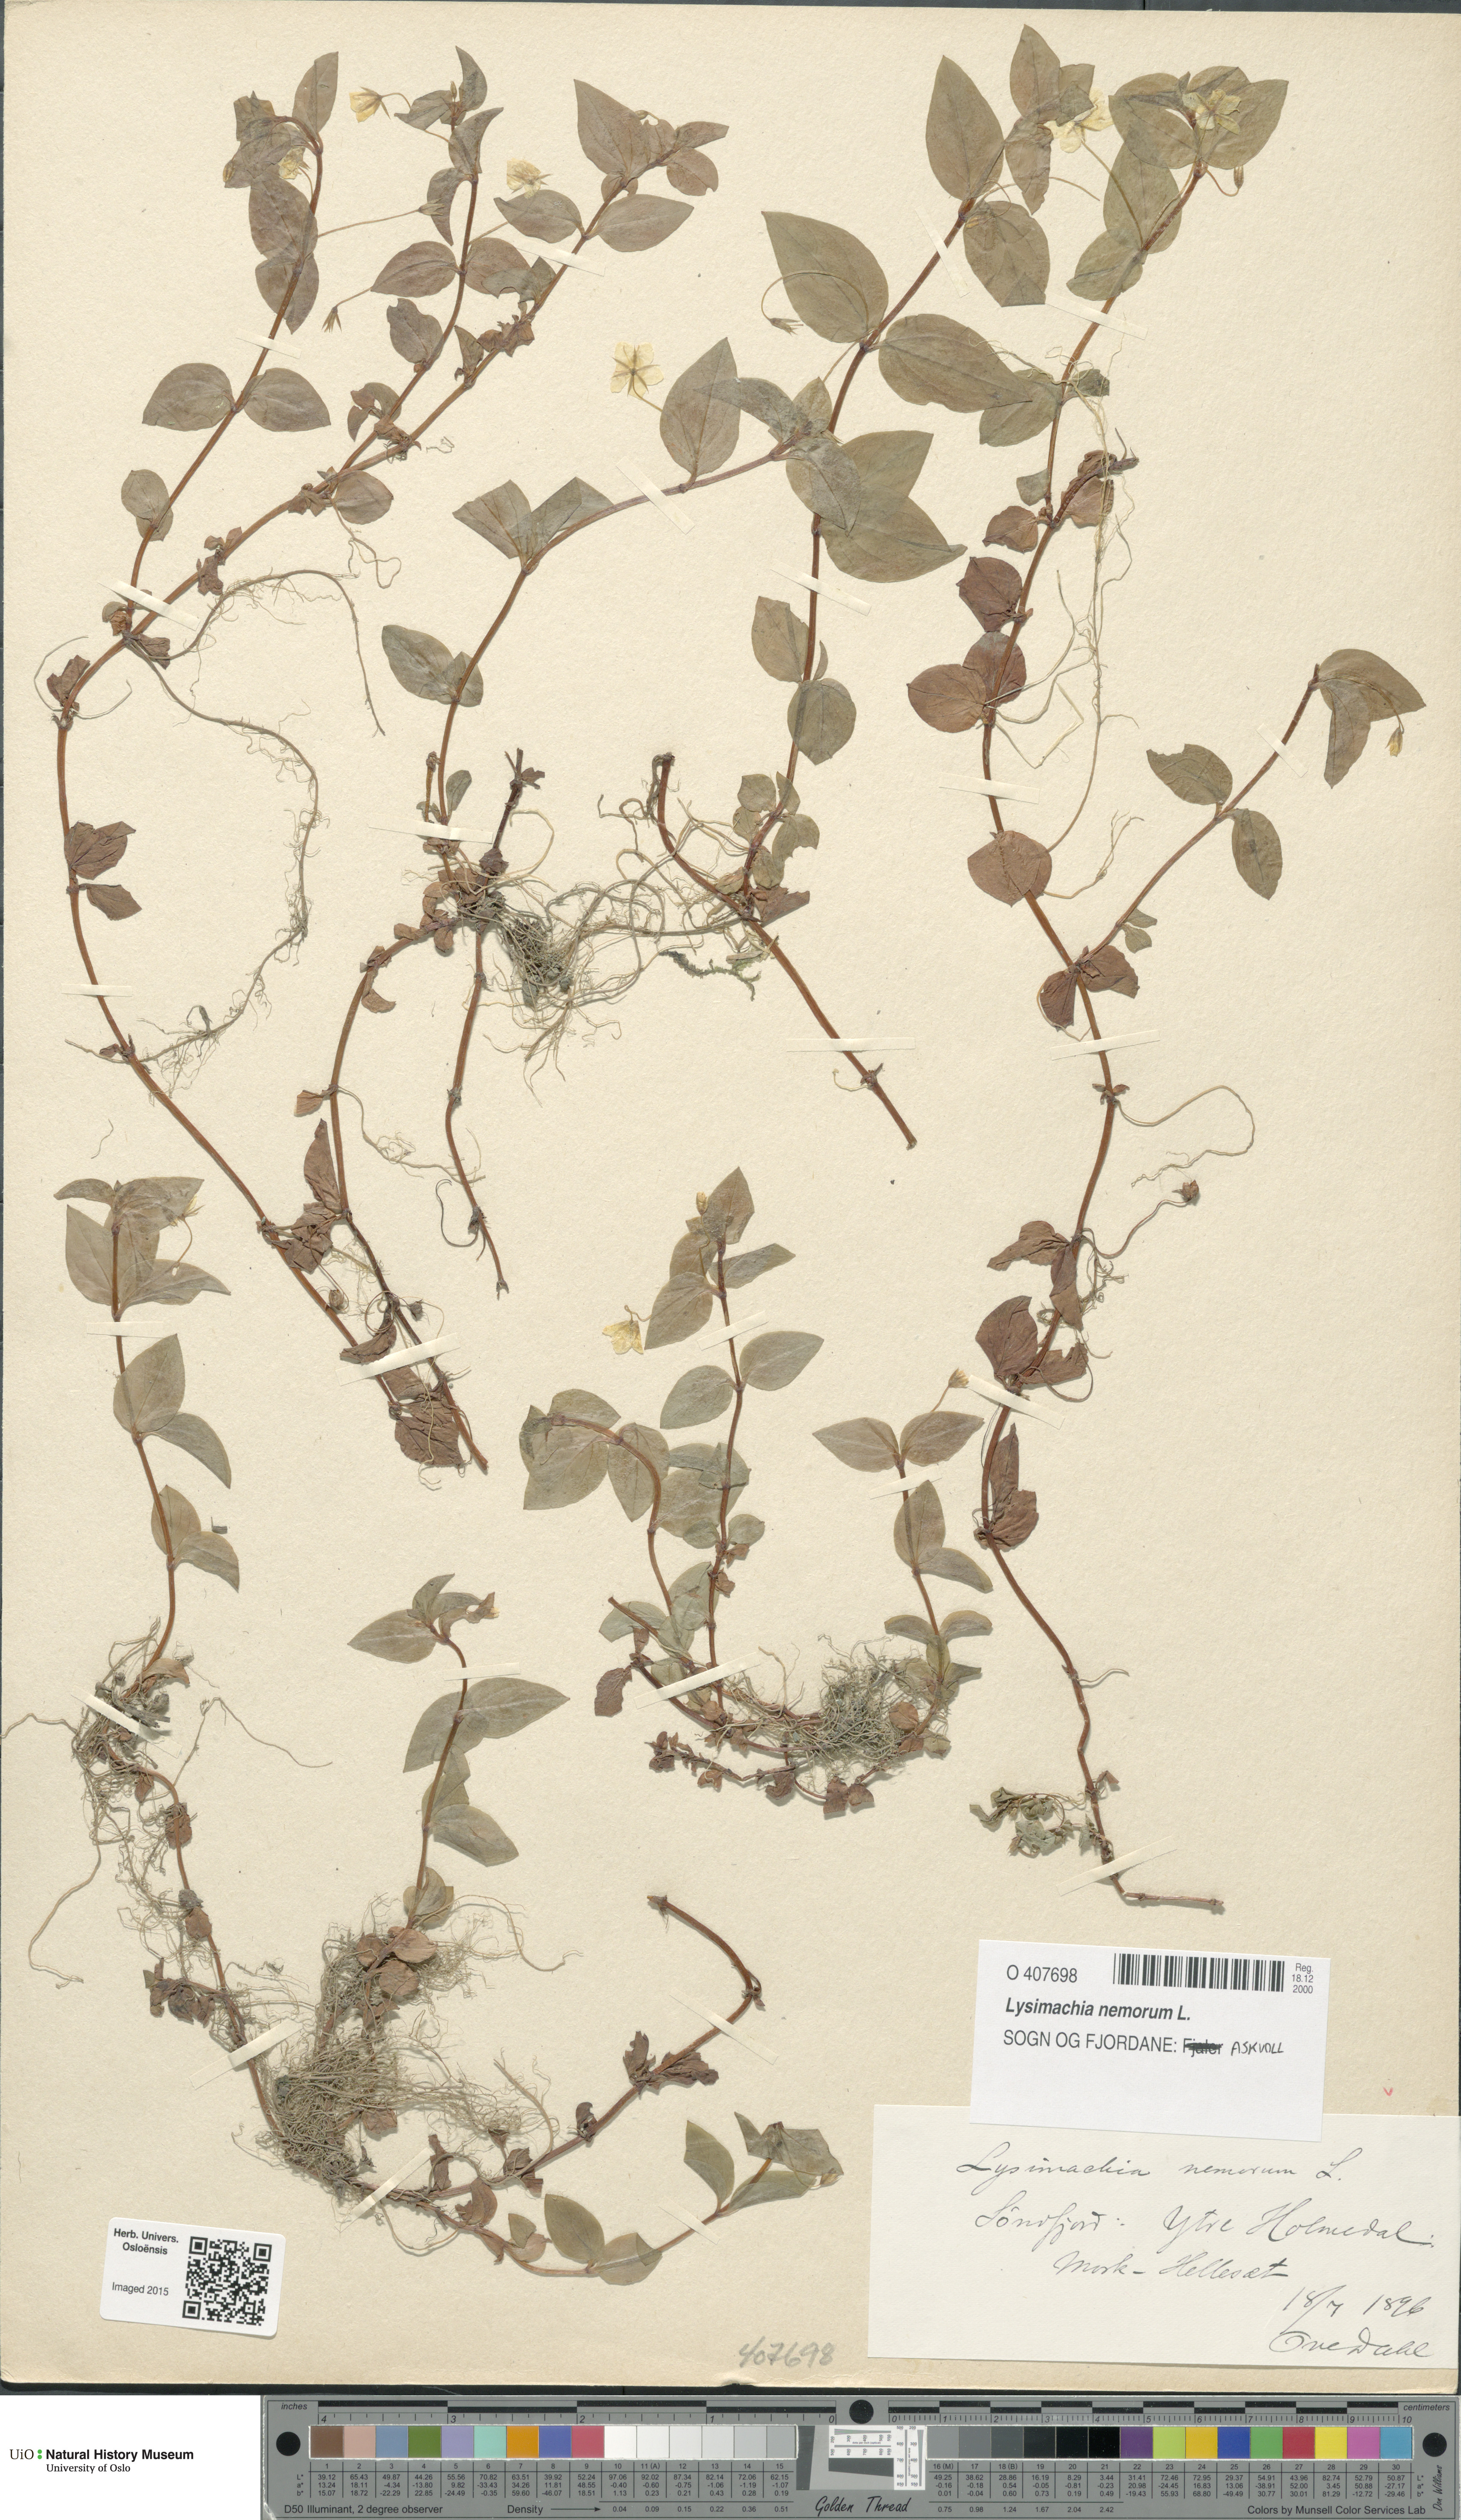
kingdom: Plantae
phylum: Tracheophyta
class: Magnoliopsida
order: Ericales
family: Primulaceae
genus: Lysimachia
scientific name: Lysimachia nemorum
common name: Yellow pimpernel
